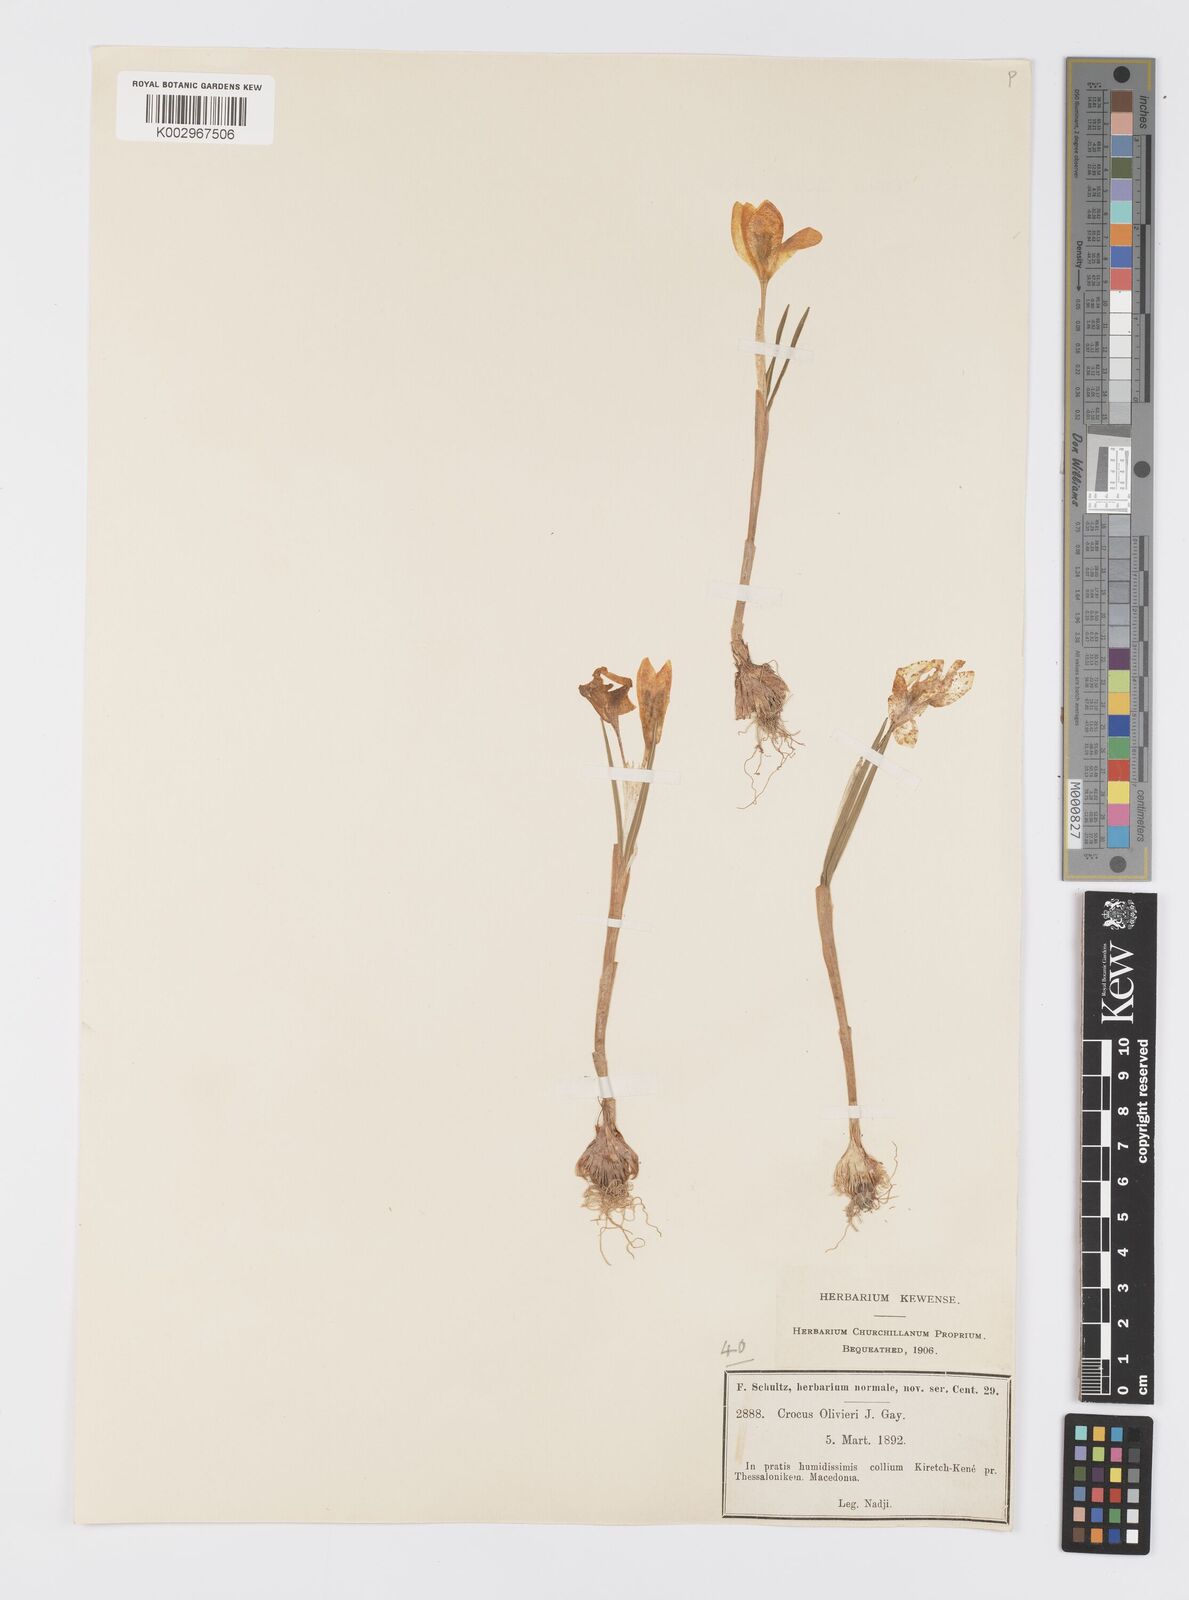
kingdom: Plantae
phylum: Tracheophyta
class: Liliopsida
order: Asparagales
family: Iridaceae
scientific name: Iridaceae
